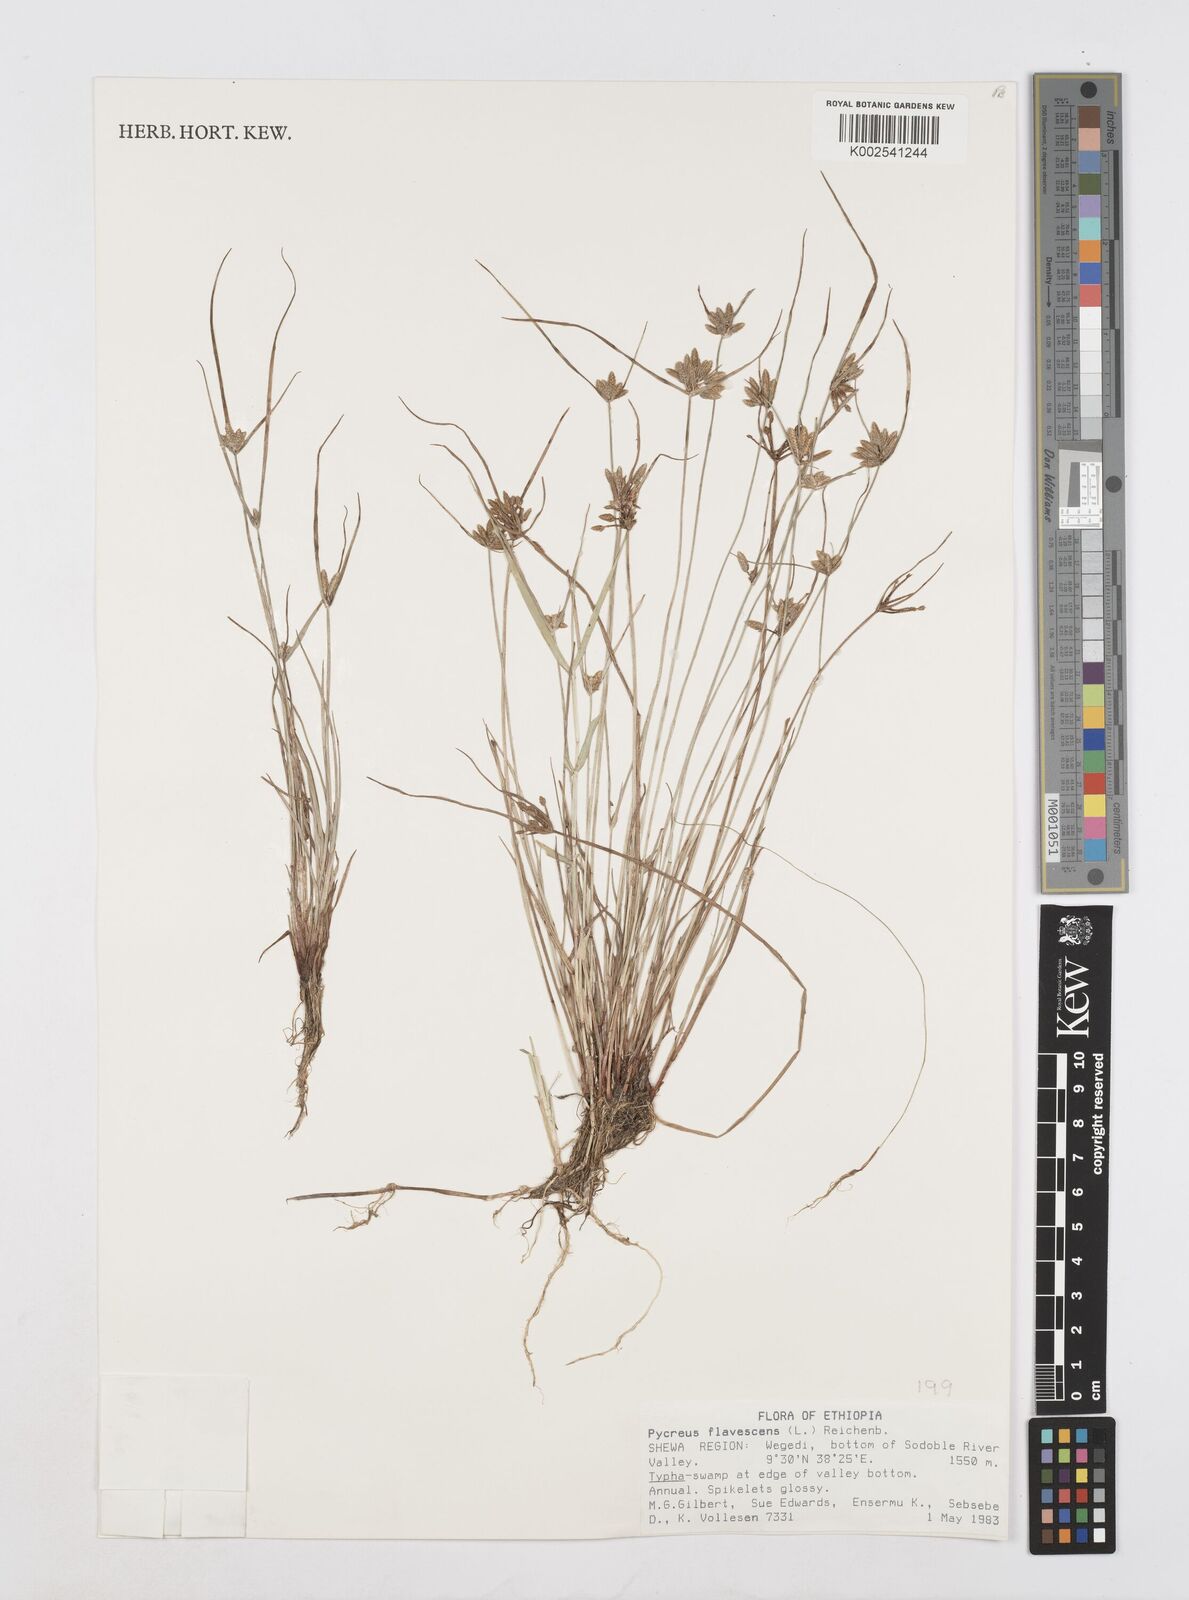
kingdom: Plantae
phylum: Tracheophyta
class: Liliopsida
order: Poales
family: Cyperaceae
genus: Cyperus
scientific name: Cyperus flavescens
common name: Yellow galingale
